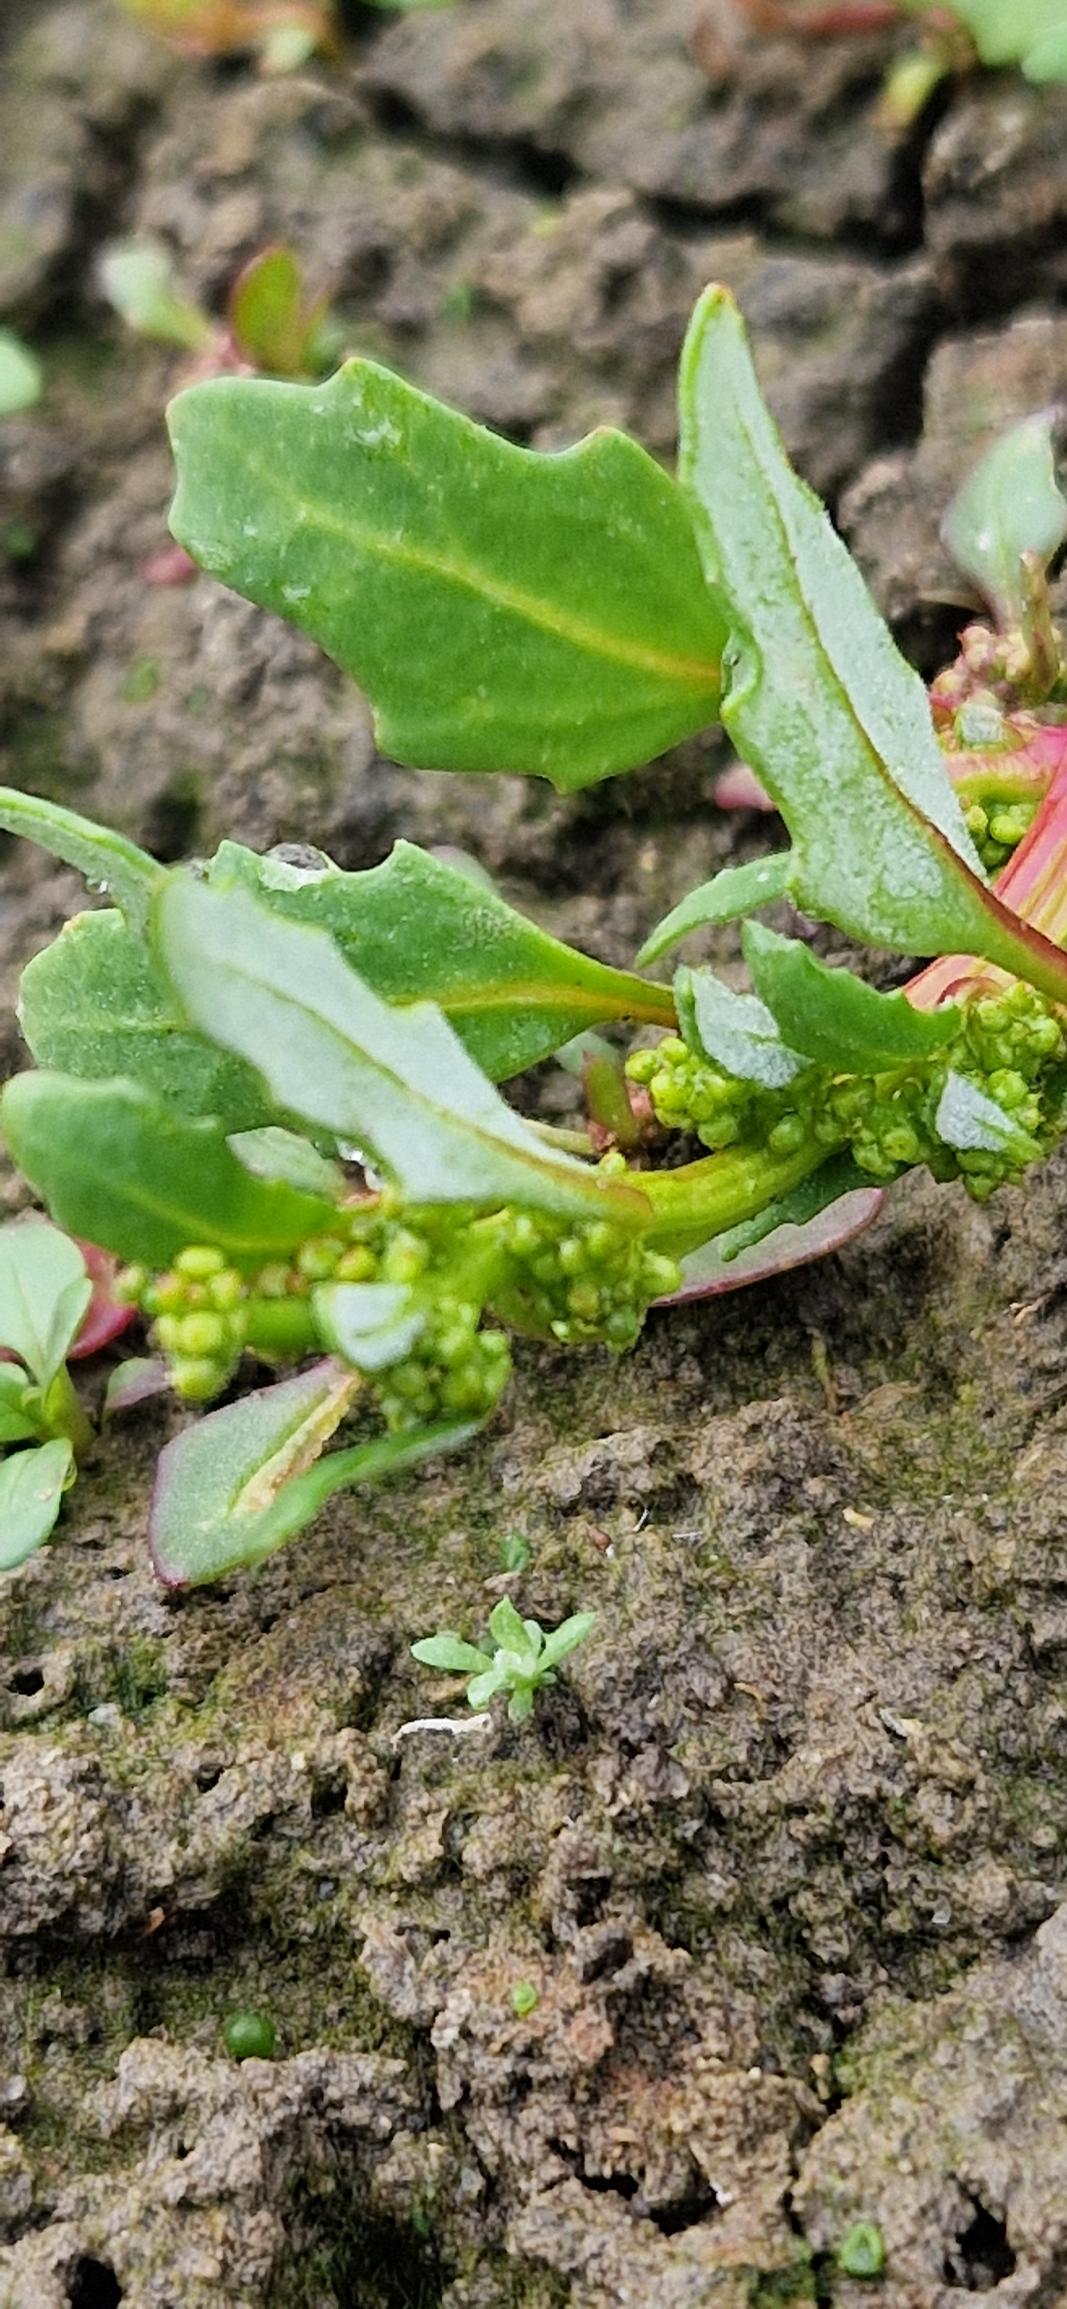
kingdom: Plantae
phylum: Tracheophyta
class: Magnoliopsida
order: Caryophyllales
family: Amaranthaceae
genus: Oxybasis
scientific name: Oxybasis glauca
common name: Blågrøn gåsefod
